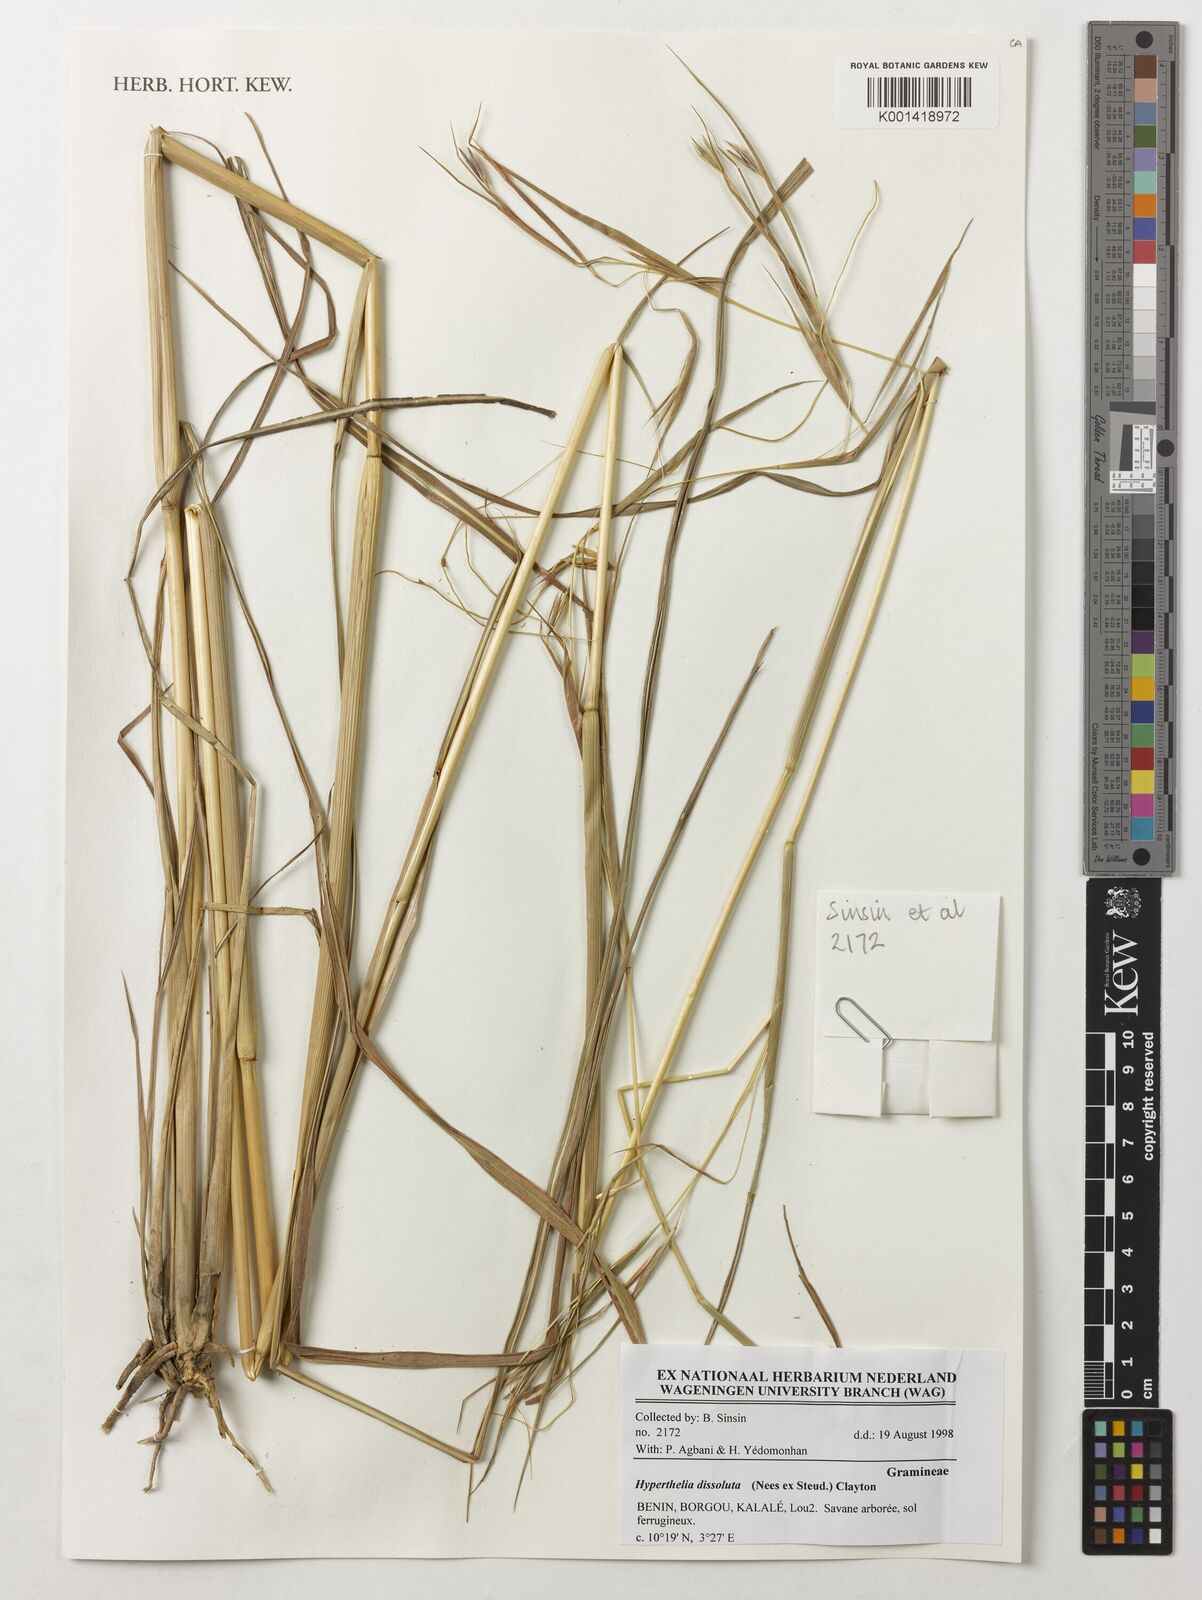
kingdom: Plantae
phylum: Tracheophyta
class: Liliopsida
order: Poales
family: Poaceae
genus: Hyperthelia
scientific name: Hyperthelia dissoluta
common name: Yellow thatching grass
